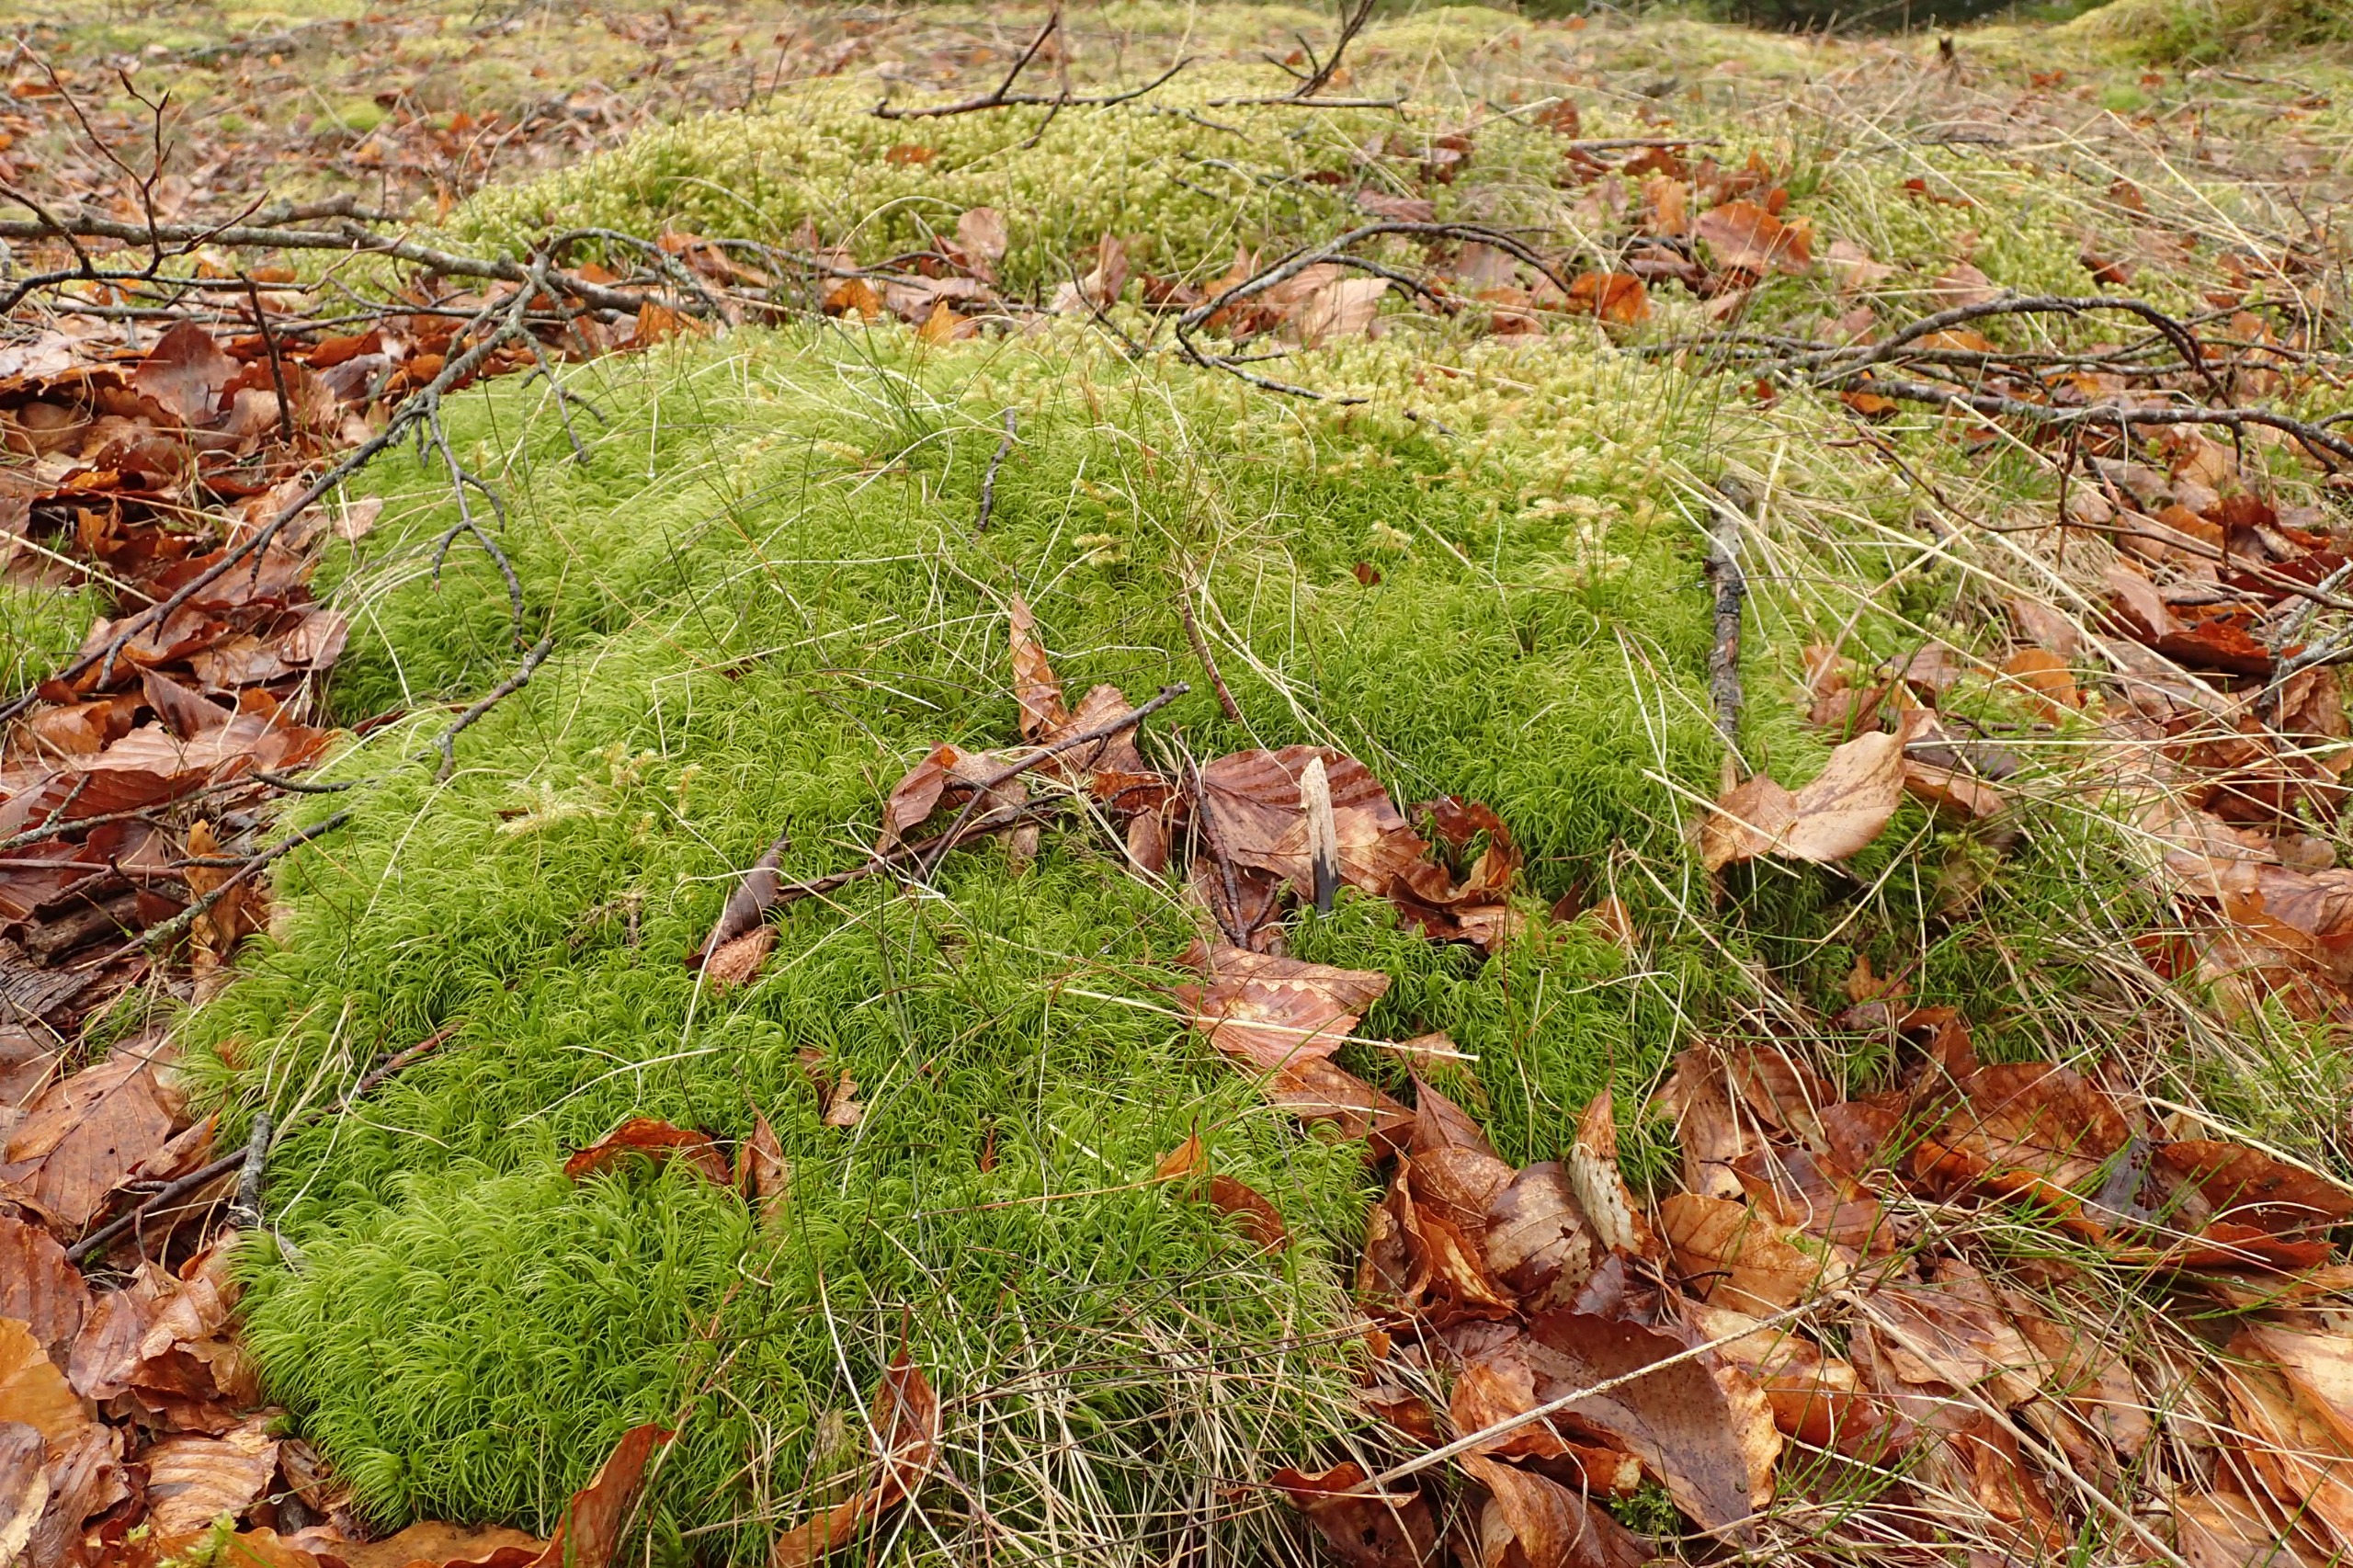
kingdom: Plantae
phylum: Bryophyta
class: Bryopsida
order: Dicranales
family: Dicranaceae
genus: Dicranum
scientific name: Dicranum majus
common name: Stor kløvtand
